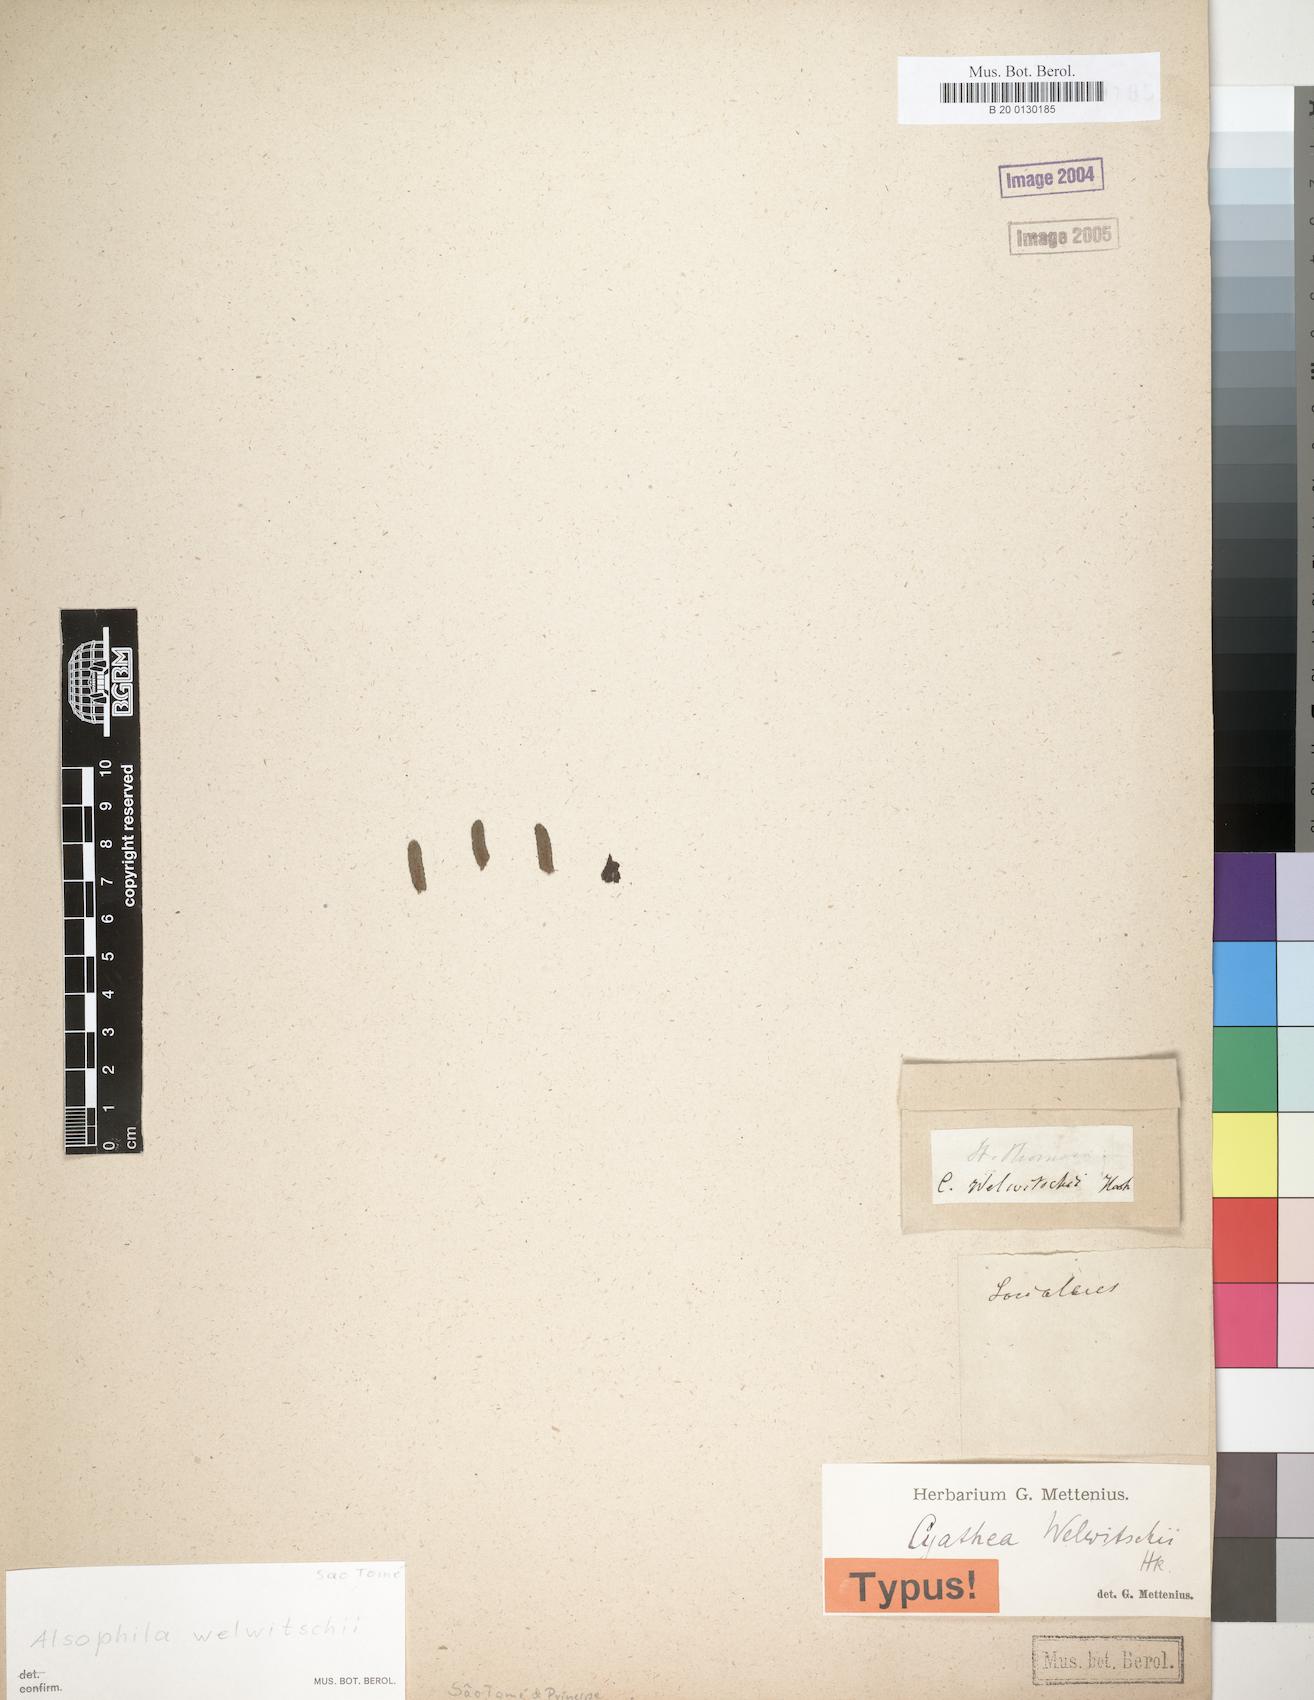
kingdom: Plantae
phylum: Tracheophyta
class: Polypodiopsida
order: Cyatheales
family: Cyatheaceae
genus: Alsophila
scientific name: Alsophila welwitschii
